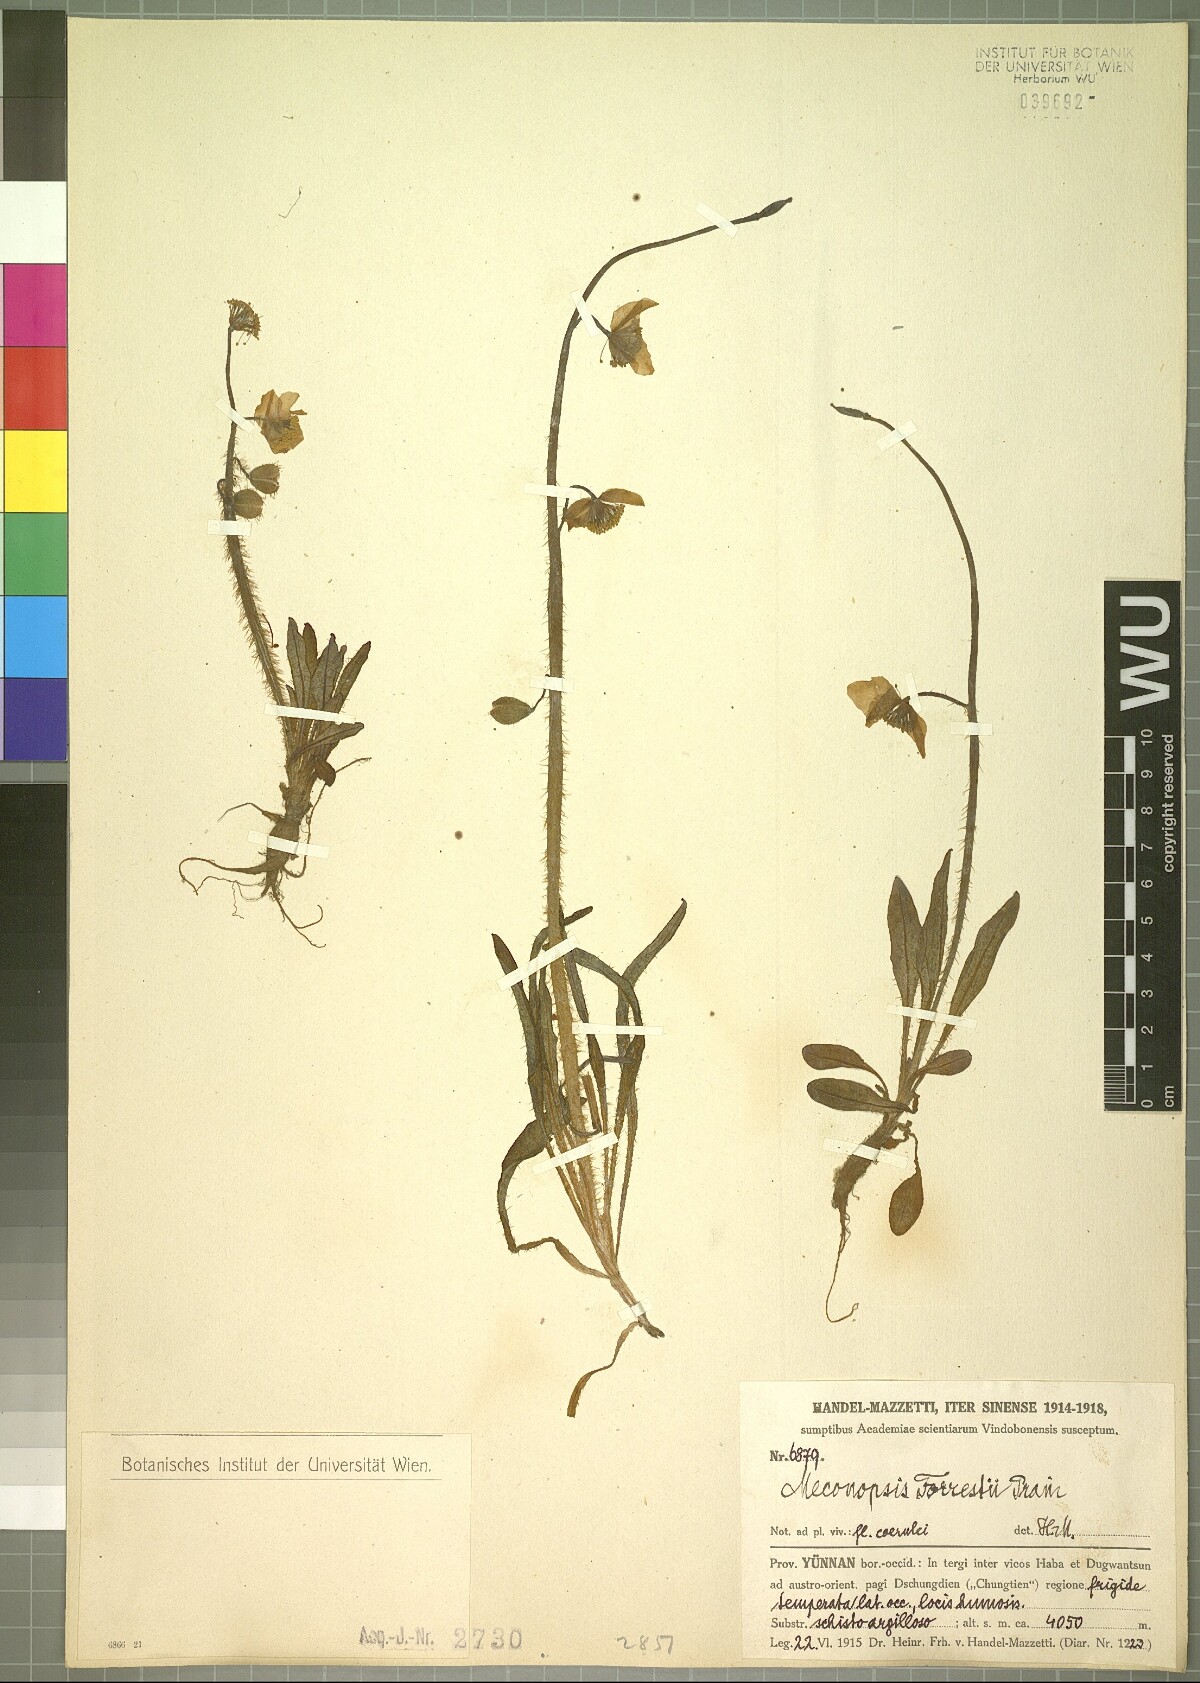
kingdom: Plantae
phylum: Tracheophyta
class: Magnoliopsida
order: Ranunculales
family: Papaveraceae
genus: Meconopsis
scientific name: Meconopsis forrestii
